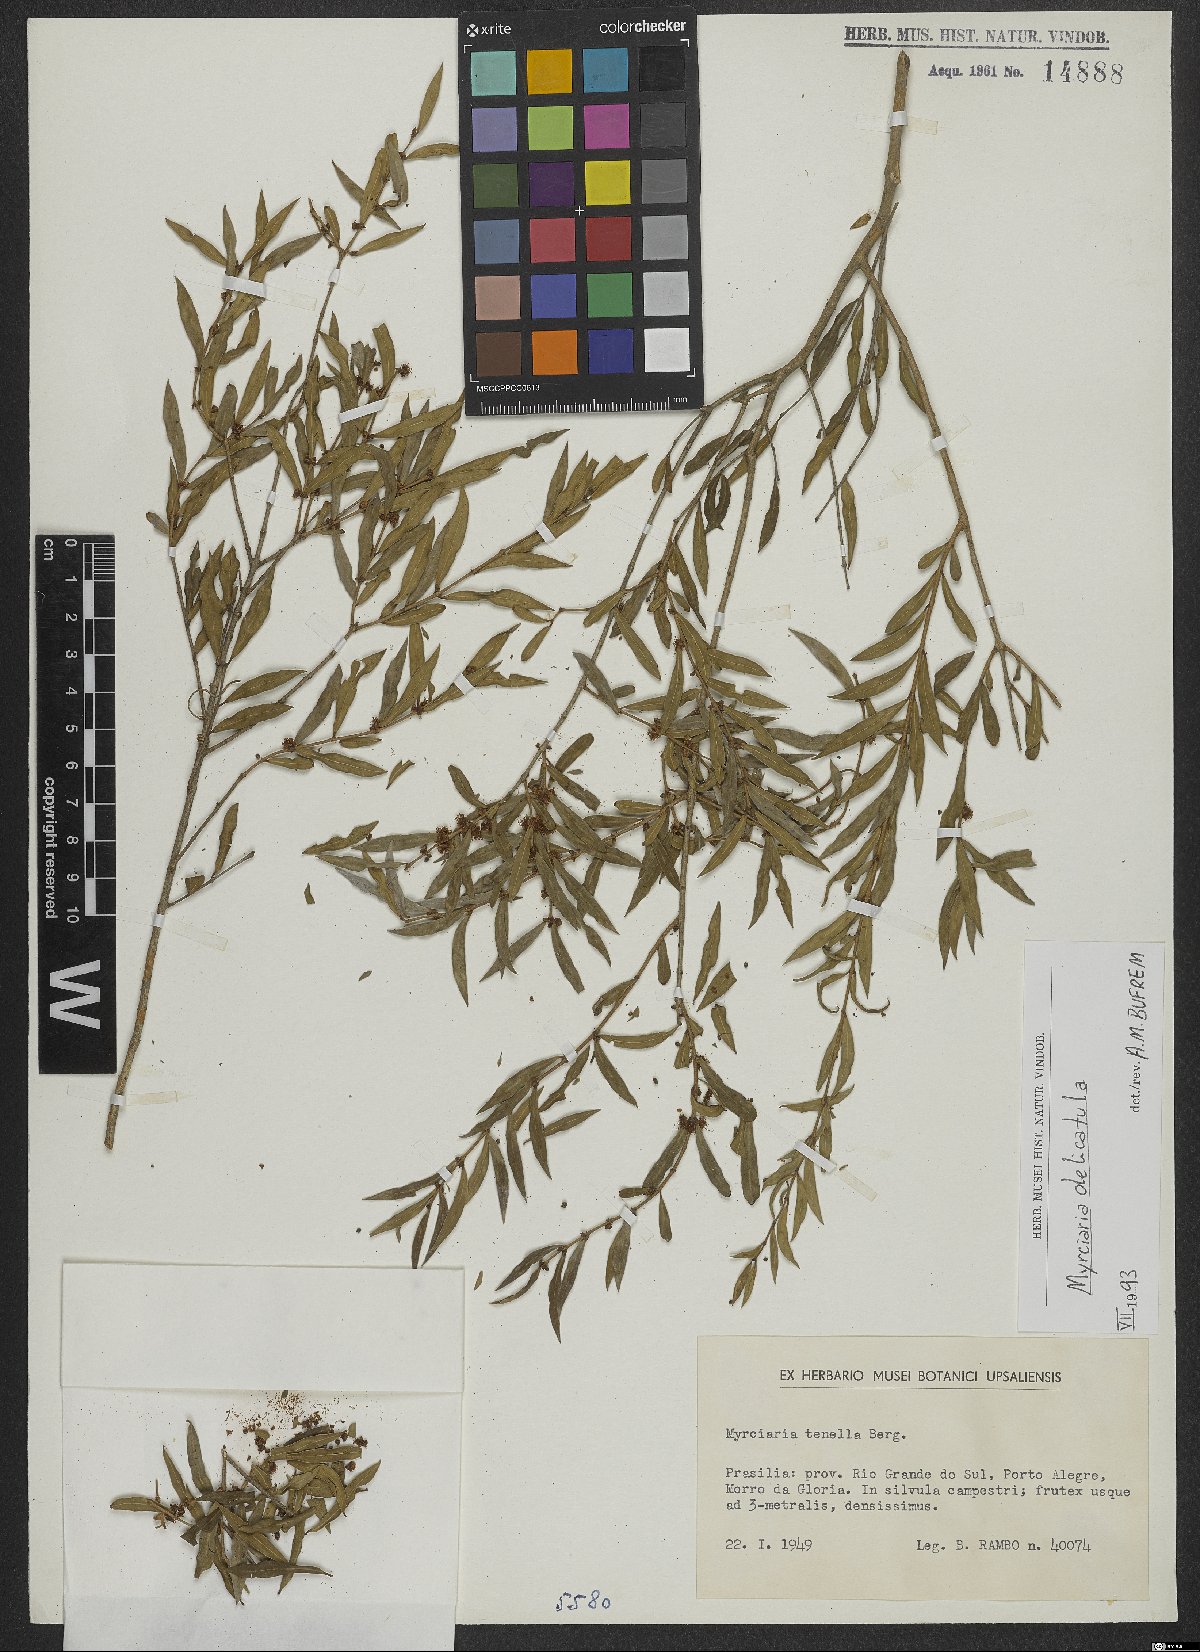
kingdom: Plantae
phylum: Tracheophyta
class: Magnoliopsida
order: Myrtales
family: Myrtaceae
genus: Myrciaria
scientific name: Myrciaria delicatula
